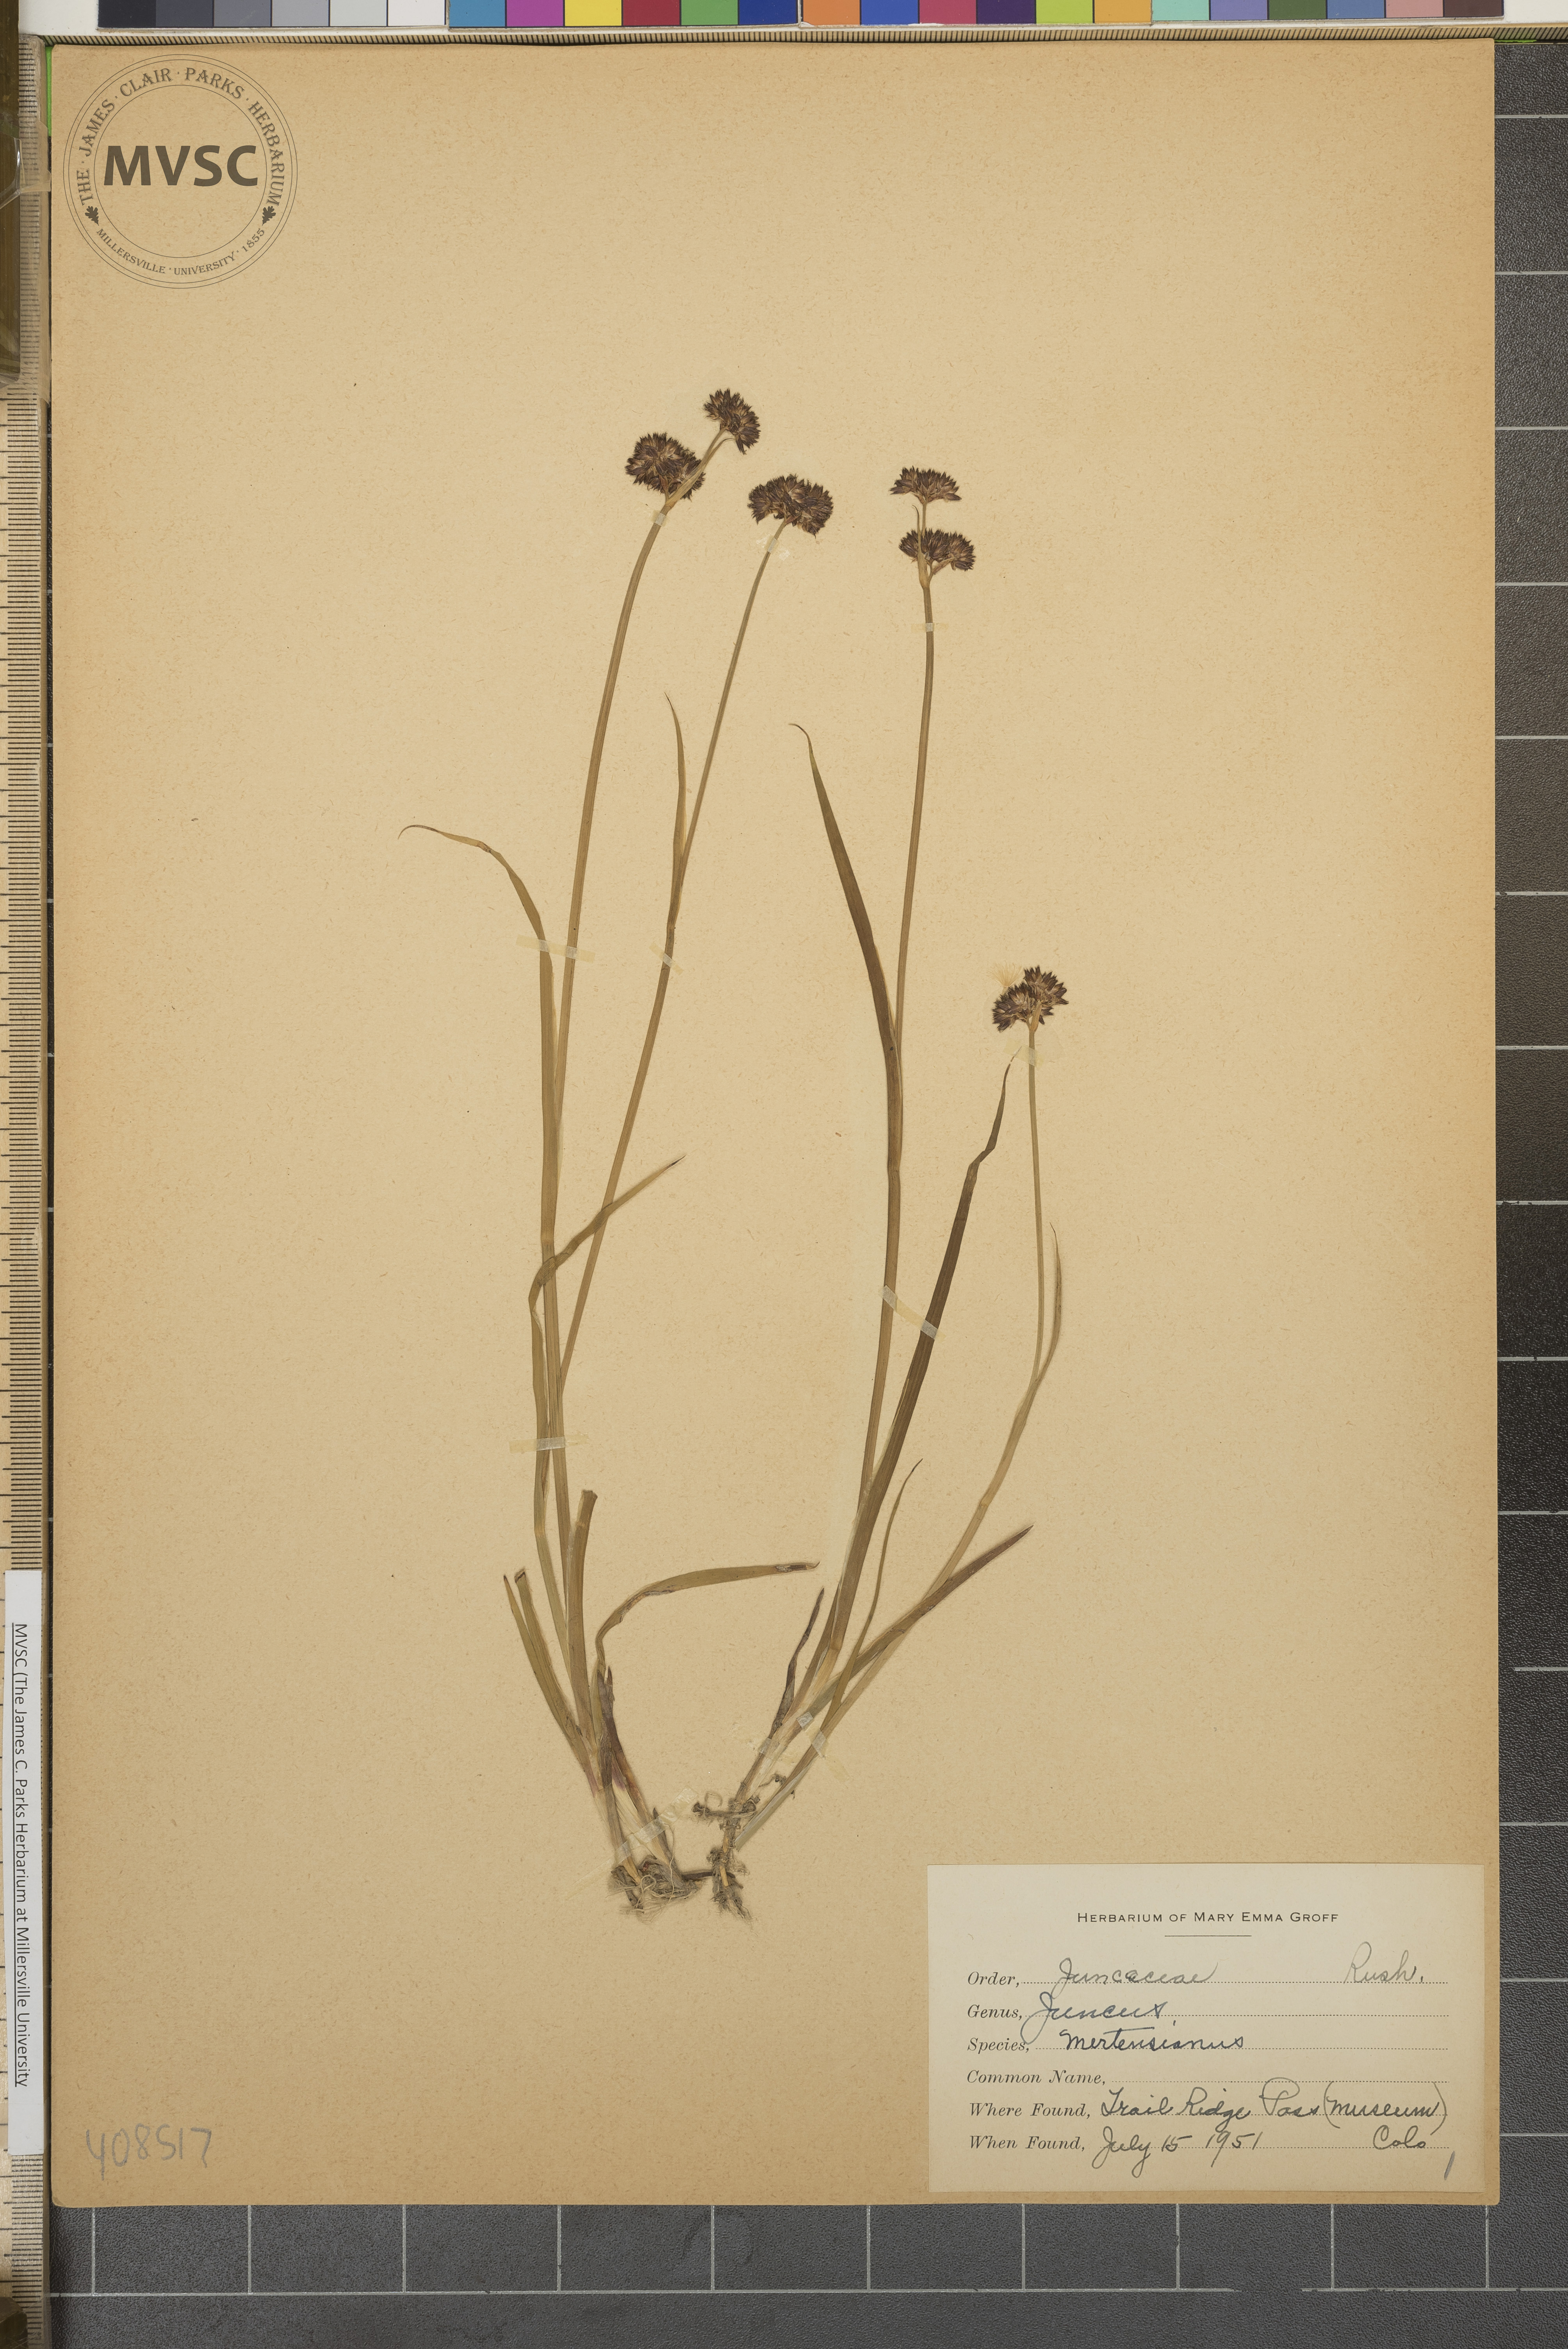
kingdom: Plantae
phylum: Tracheophyta
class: Liliopsida
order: Poales
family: Juncaceae
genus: Juncus
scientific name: Juncus mertensianus
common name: Merten's rush
